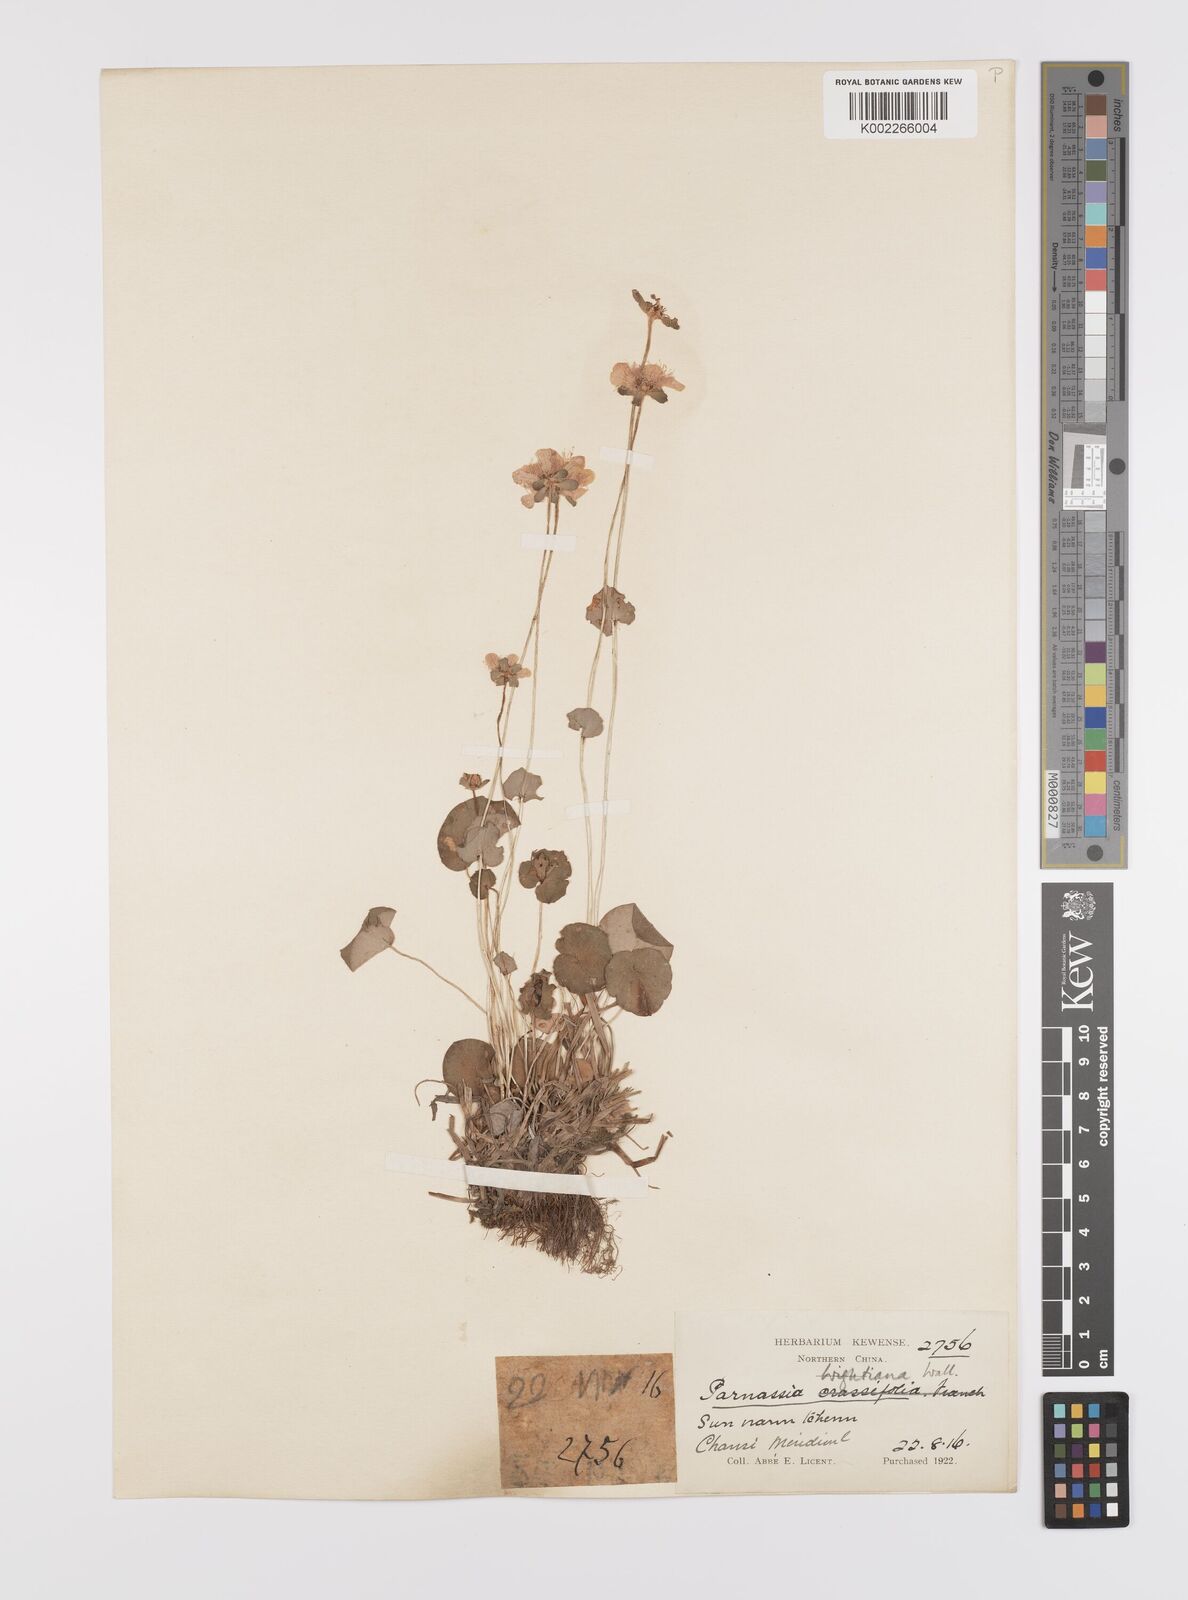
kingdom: Plantae
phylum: Tracheophyta
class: Magnoliopsida
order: Celastrales
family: Parnassiaceae
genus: Parnassia
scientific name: Parnassia wightiana
